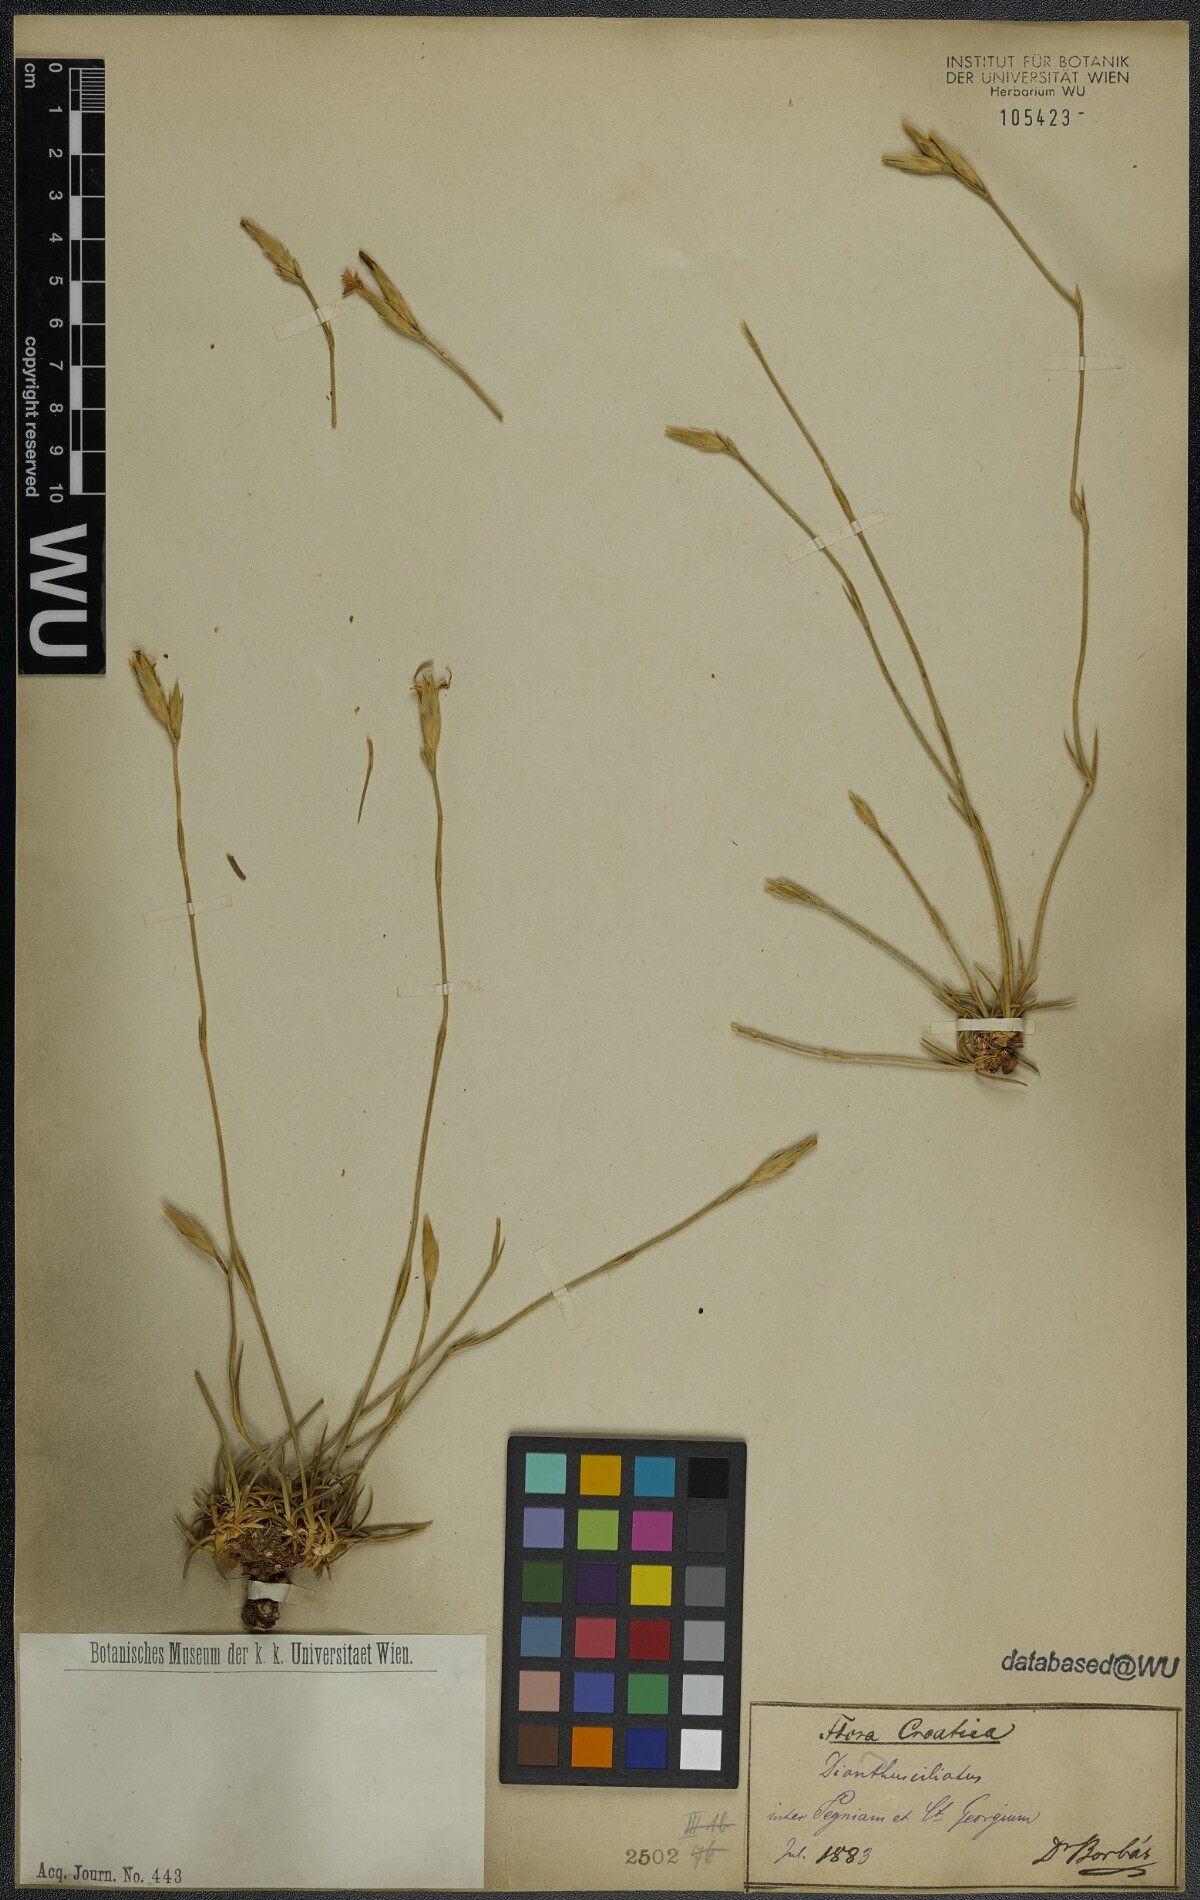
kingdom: Plantae
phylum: Tracheophyta
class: Magnoliopsida
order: Caryophyllales
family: Caryophyllaceae
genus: Dianthus
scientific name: Dianthus ciliatus
